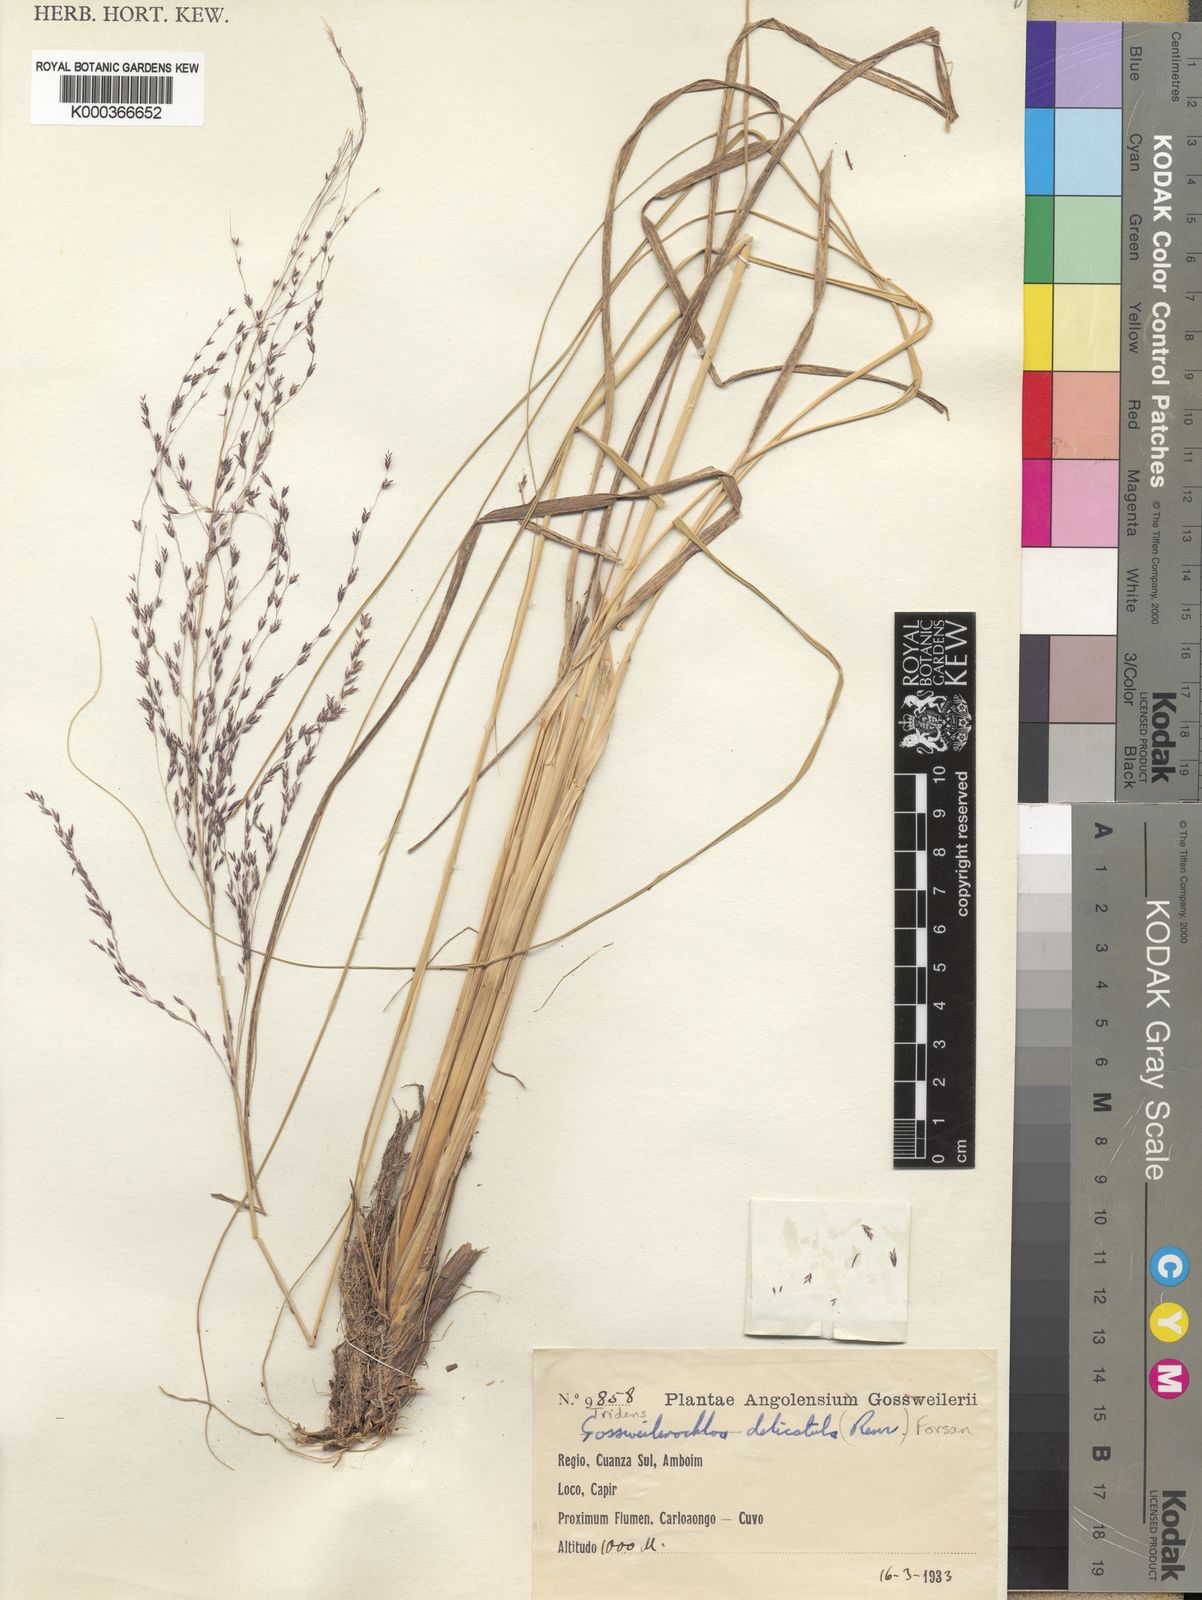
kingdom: Plantae
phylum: Tracheophyta
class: Liliopsida
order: Poales
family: Poaceae
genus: Tridens
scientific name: Tridens
